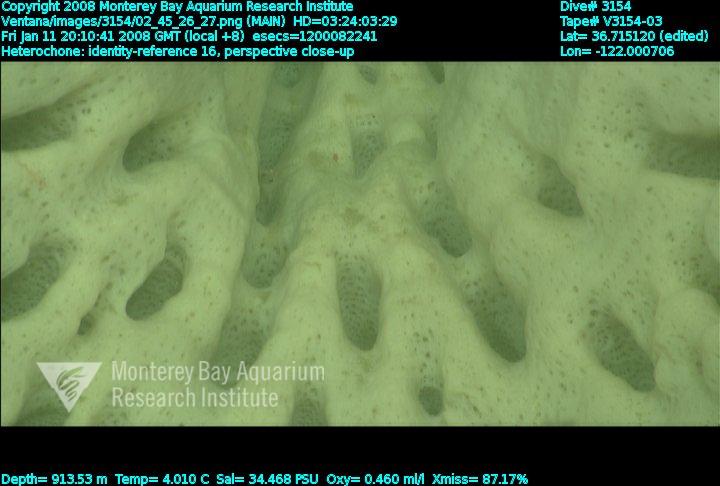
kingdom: Animalia
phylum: Porifera
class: Hexactinellida
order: Sceptrulophora
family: Aphrocallistidae
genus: Heterochone
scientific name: Heterochone
